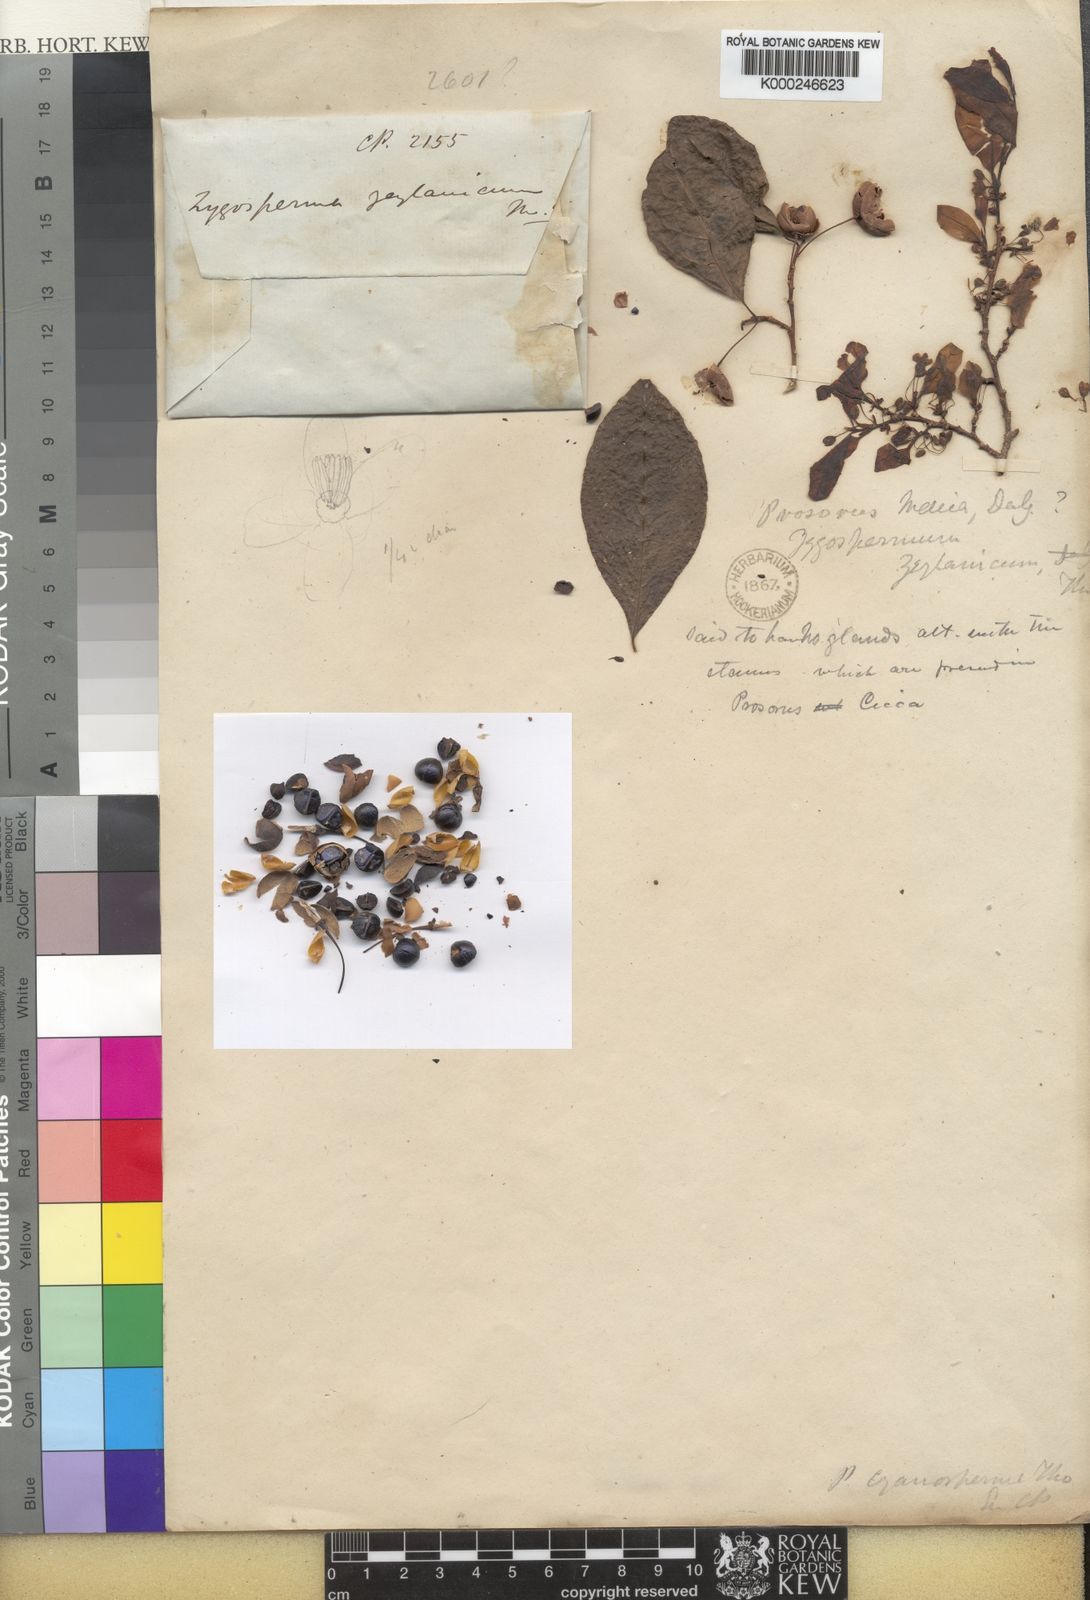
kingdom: Plantae
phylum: Tracheophyta
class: Magnoliopsida
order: Malpighiales
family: Phyllanthaceae
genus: Margaritaria
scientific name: Margaritaria cyanosperma
